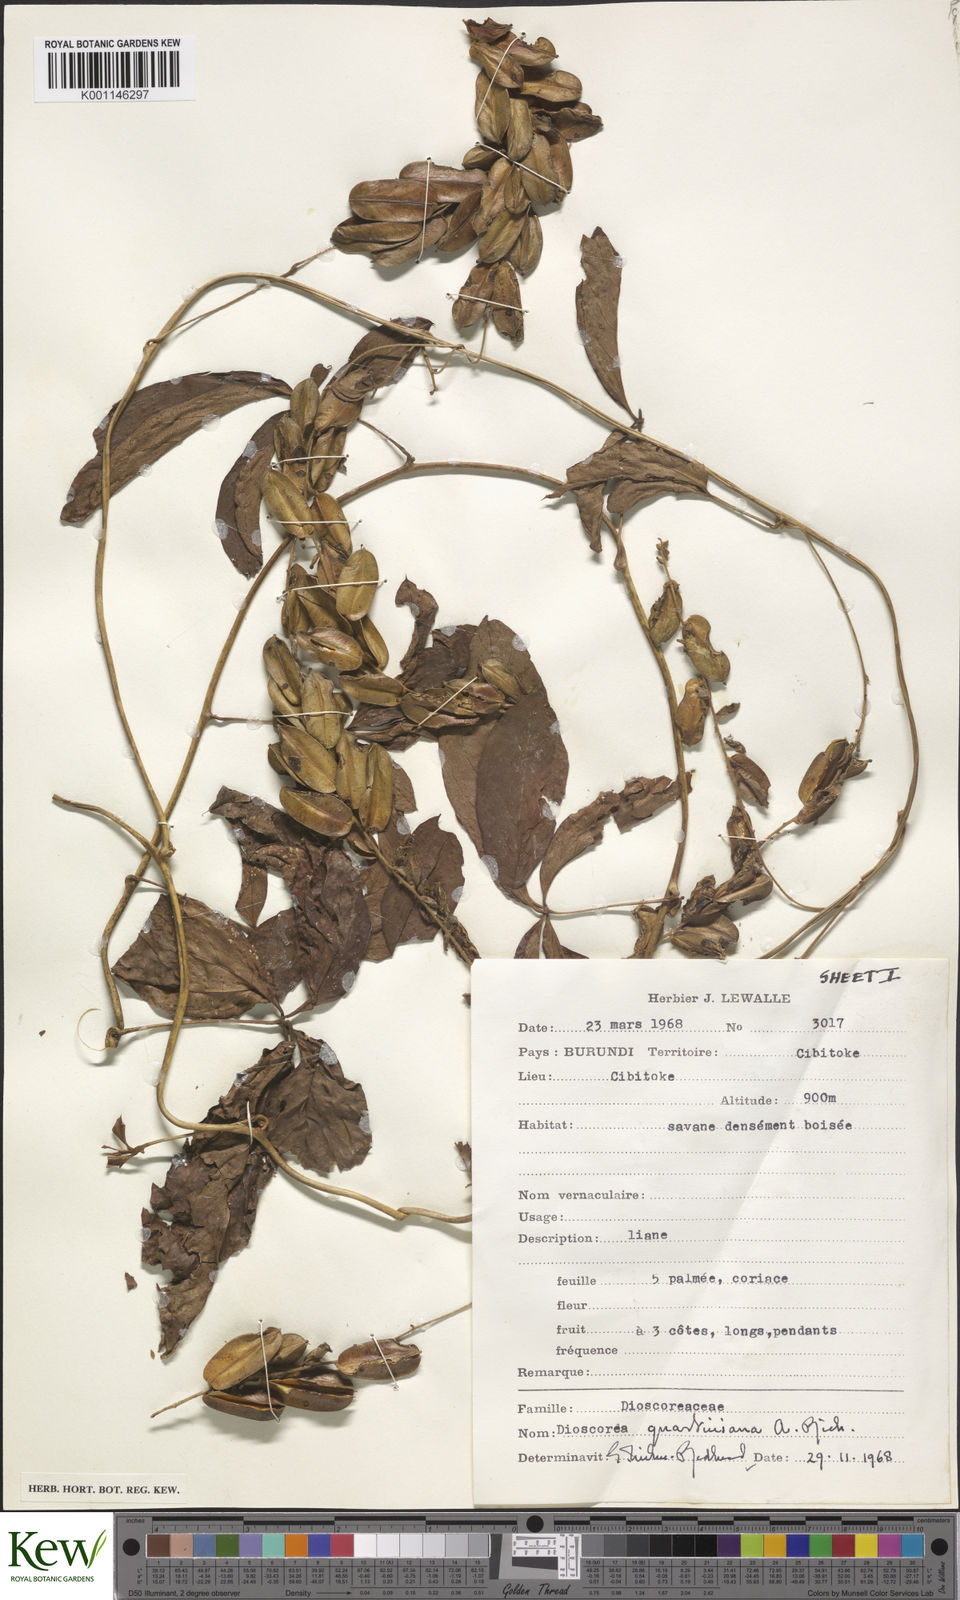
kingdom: Plantae
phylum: Tracheophyta
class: Liliopsida
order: Dioscoreales
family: Dioscoreaceae
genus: Dioscorea
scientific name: Dioscorea quartiniana
